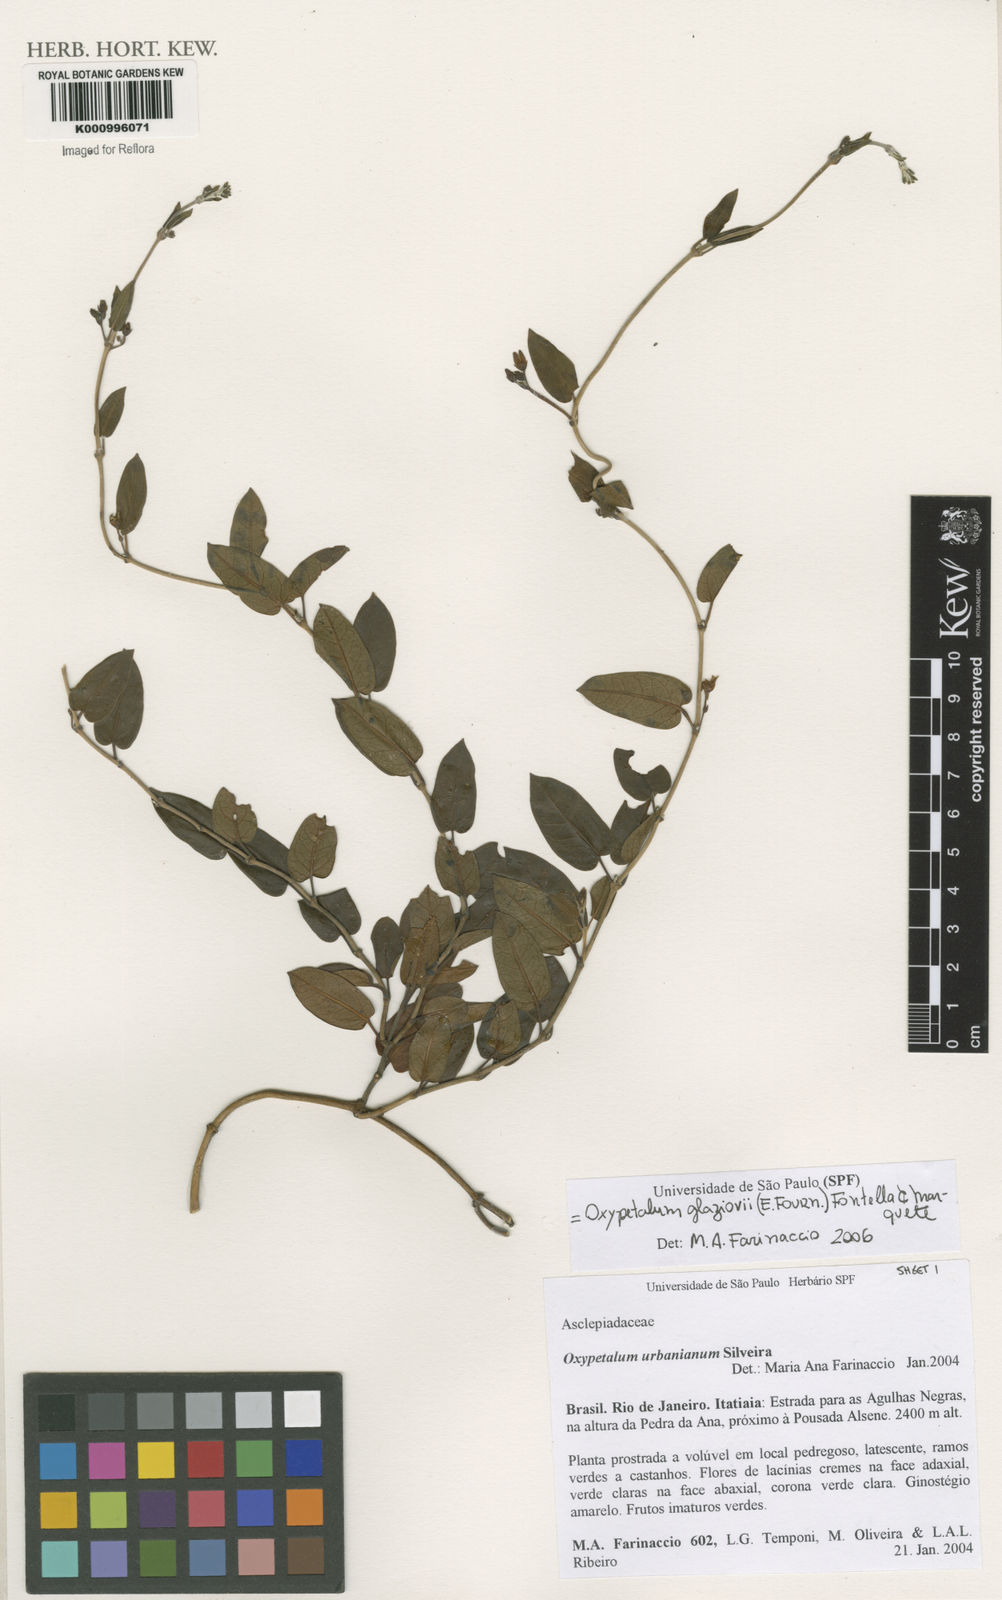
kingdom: Plantae
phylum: Tracheophyta
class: Magnoliopsida
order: Gentianales
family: Apocynaceae
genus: Oxypetalum
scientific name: Oxypetalum insigne
